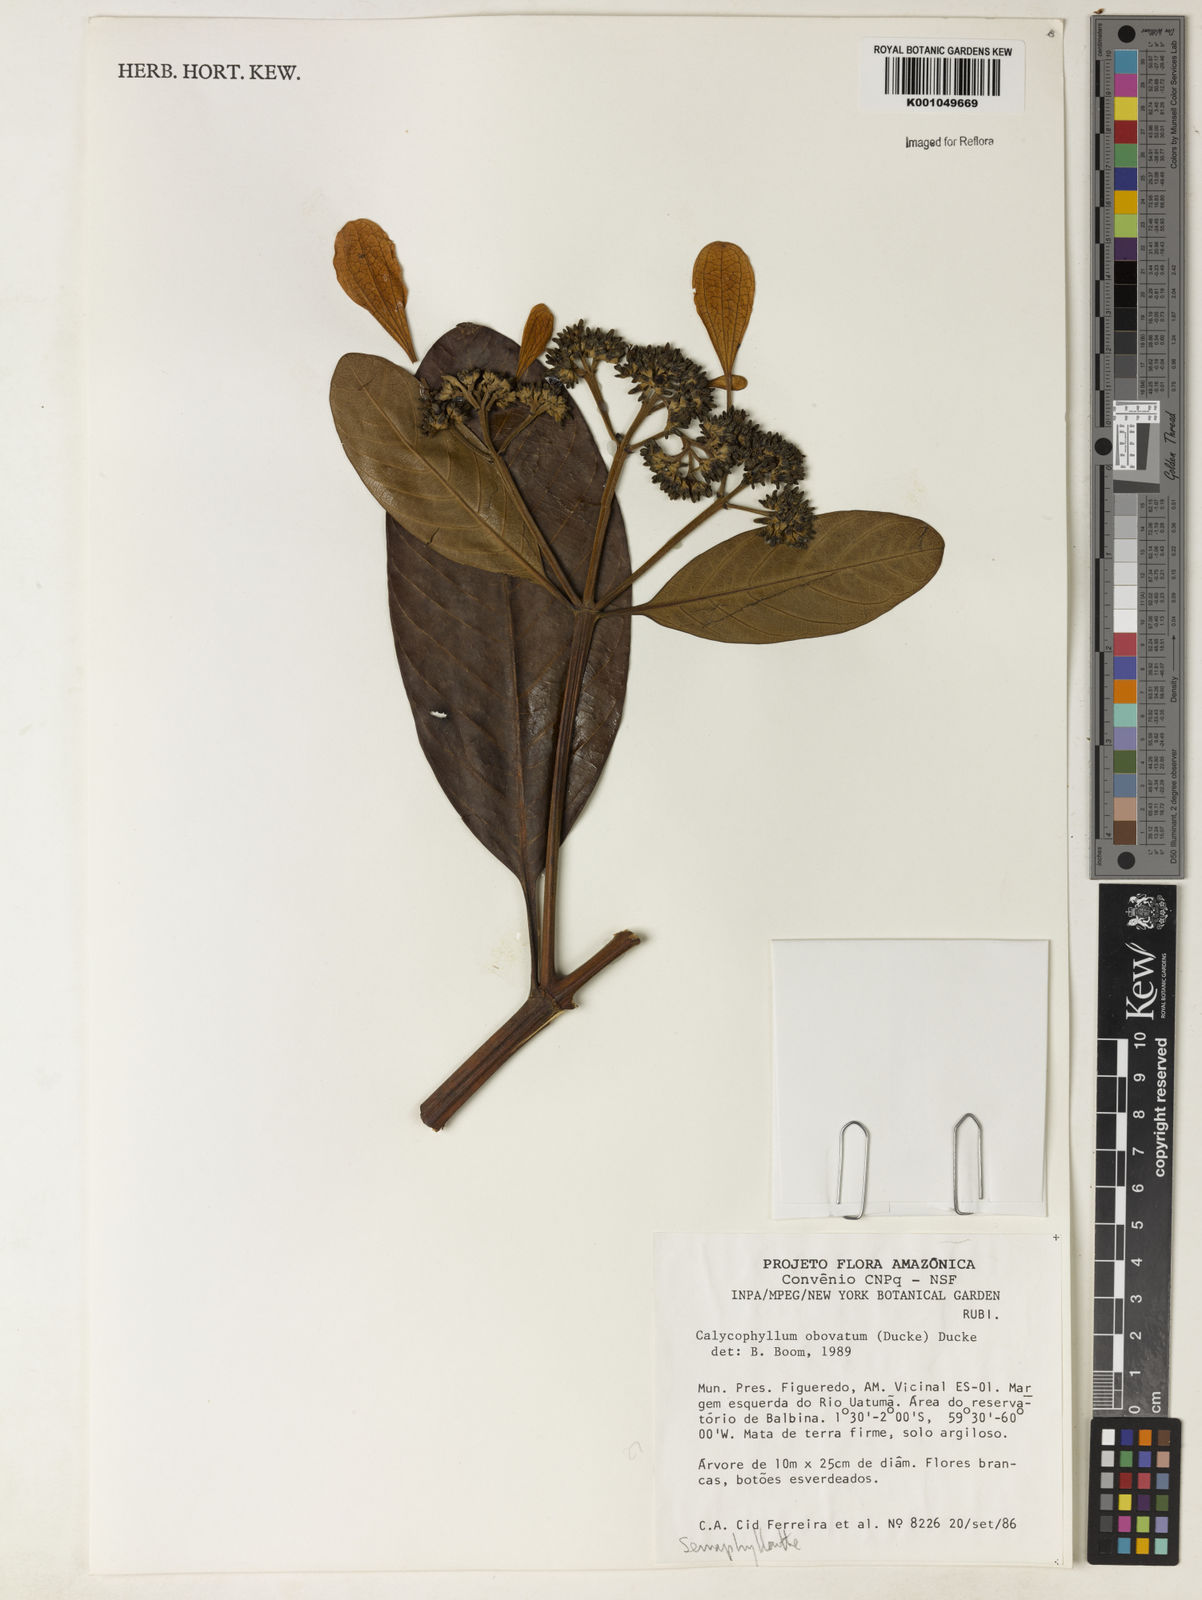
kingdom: Plantae
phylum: Tracheophyta
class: Magnoliopsida
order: Gentianales
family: Rubiaceae
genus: Calycophyllum
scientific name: Calycophyllum intonsum
